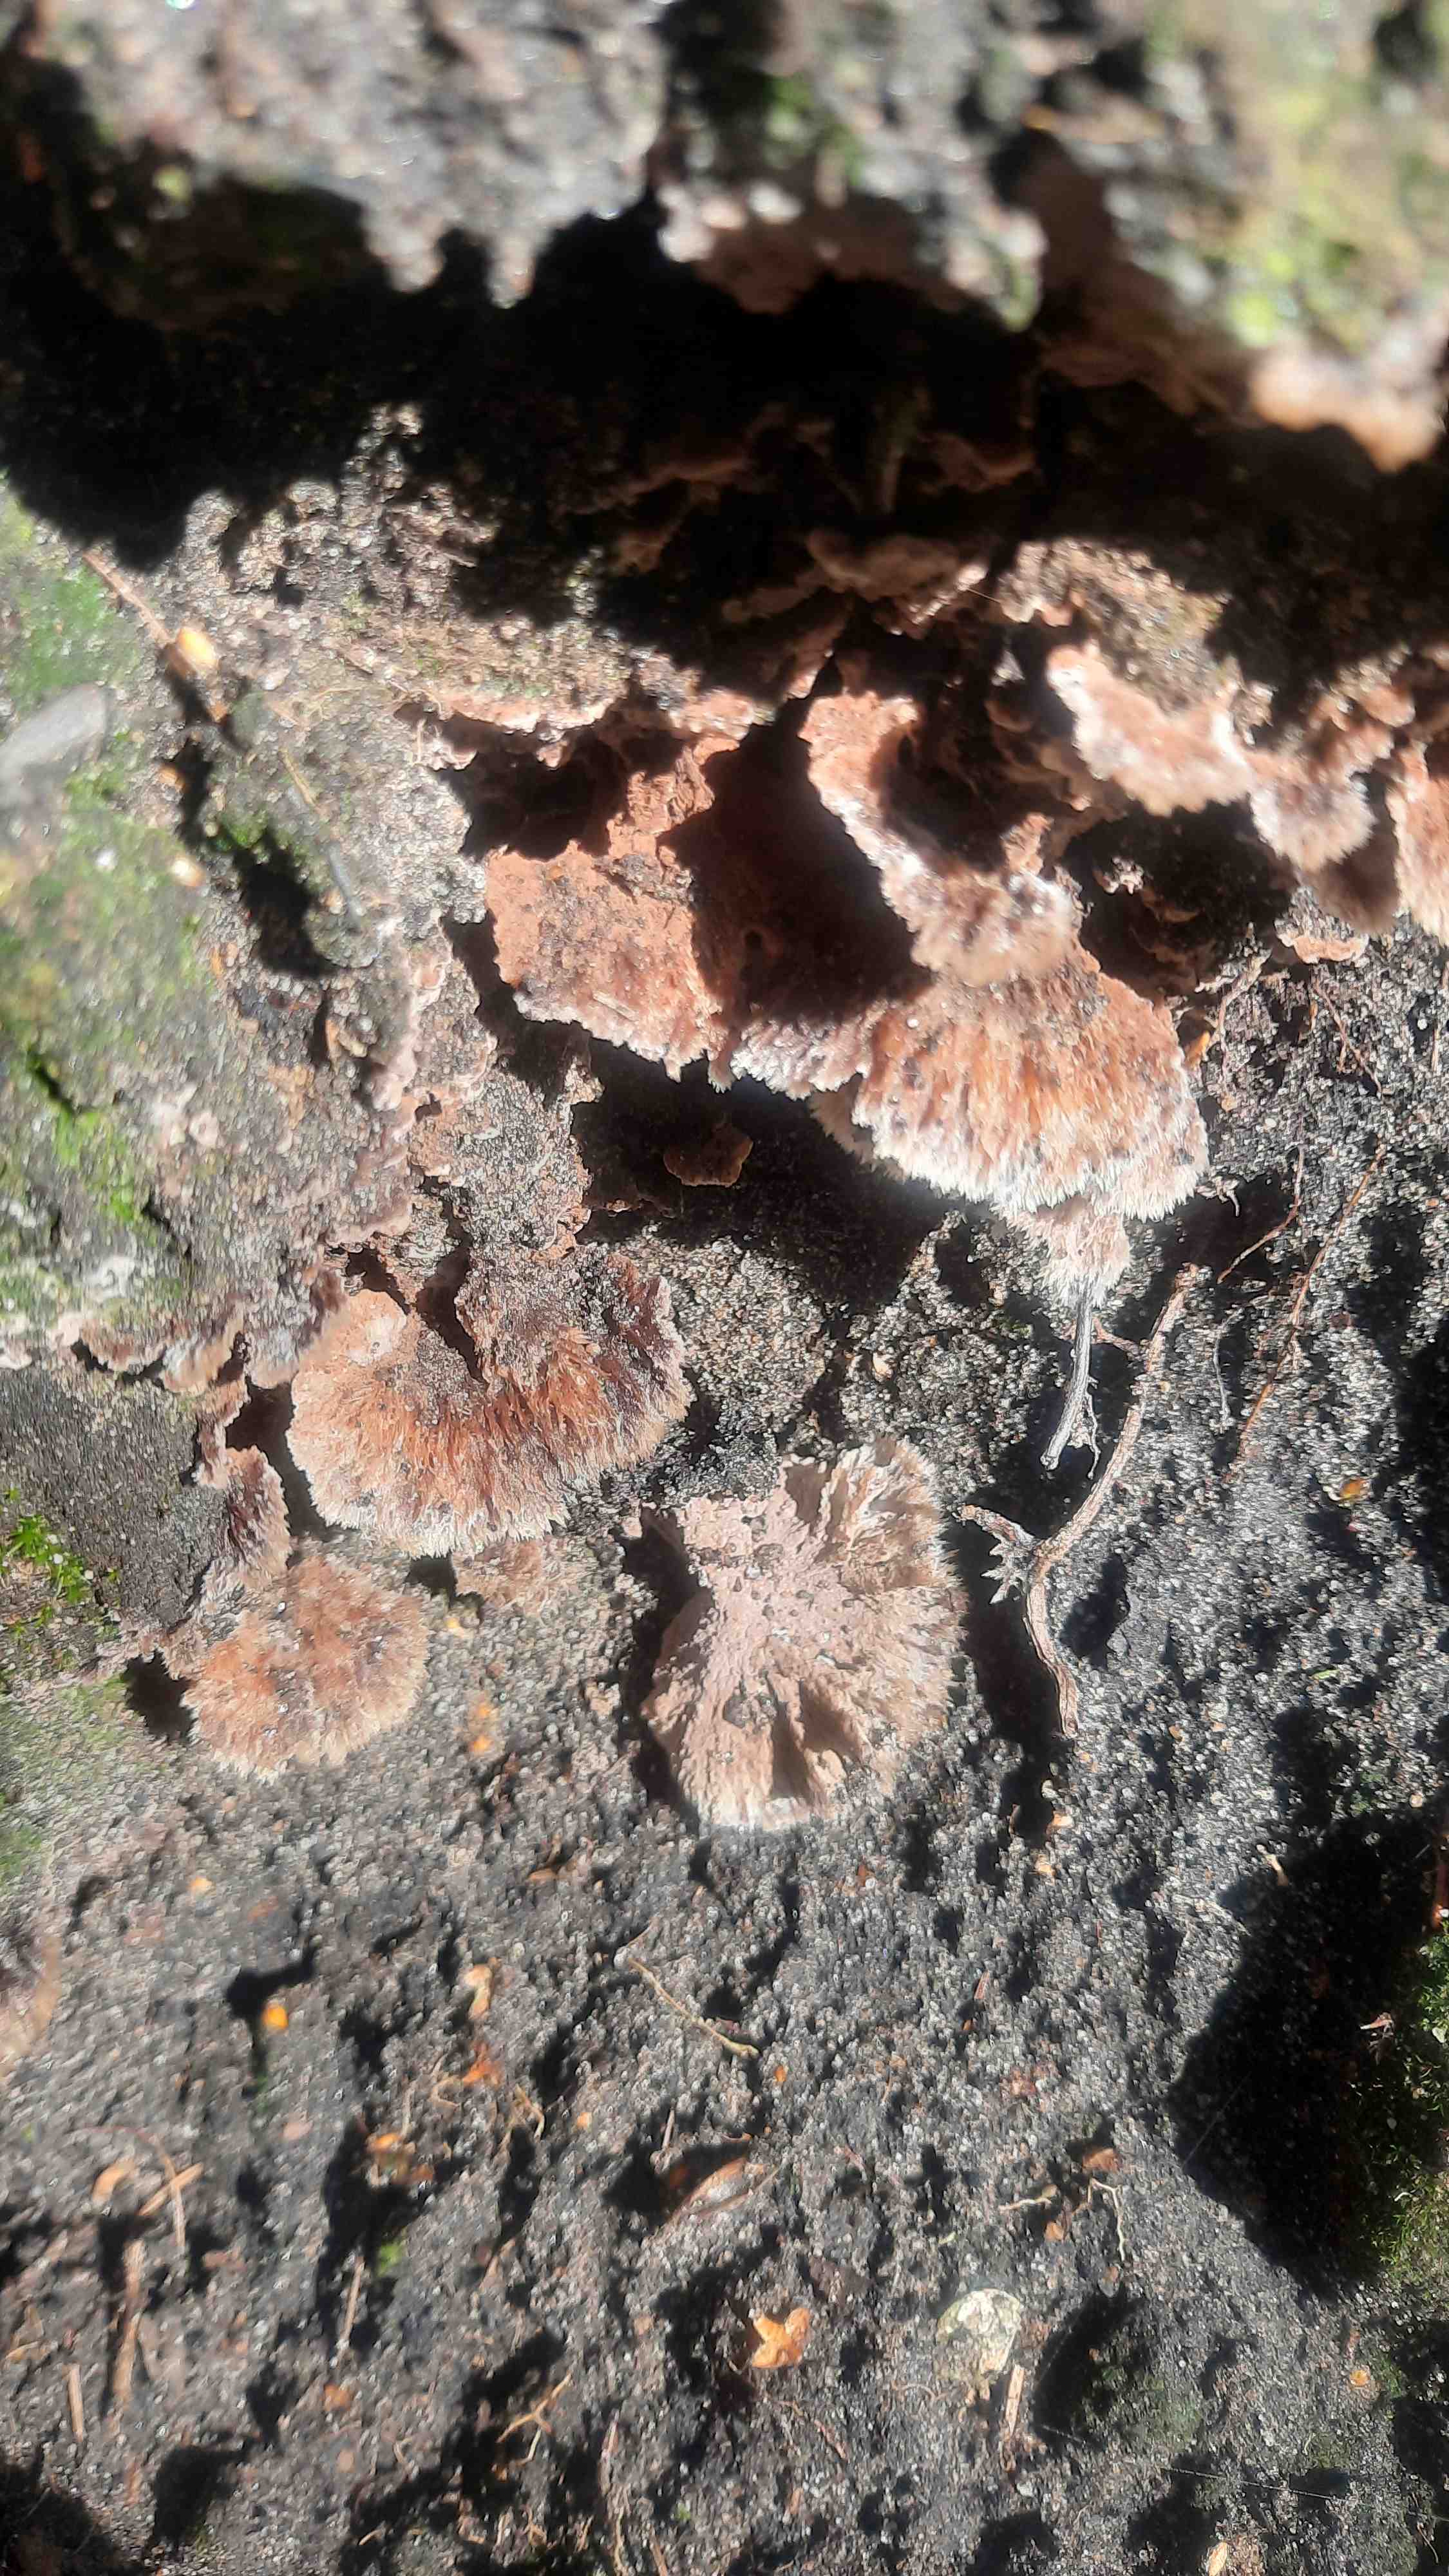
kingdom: Fungi
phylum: Basidiomycota
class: Agaricomycetes
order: Thelephorales
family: Thelephoraceae
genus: Thelephora
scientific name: Thelephora terrestris
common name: fliget frynsesvamp
